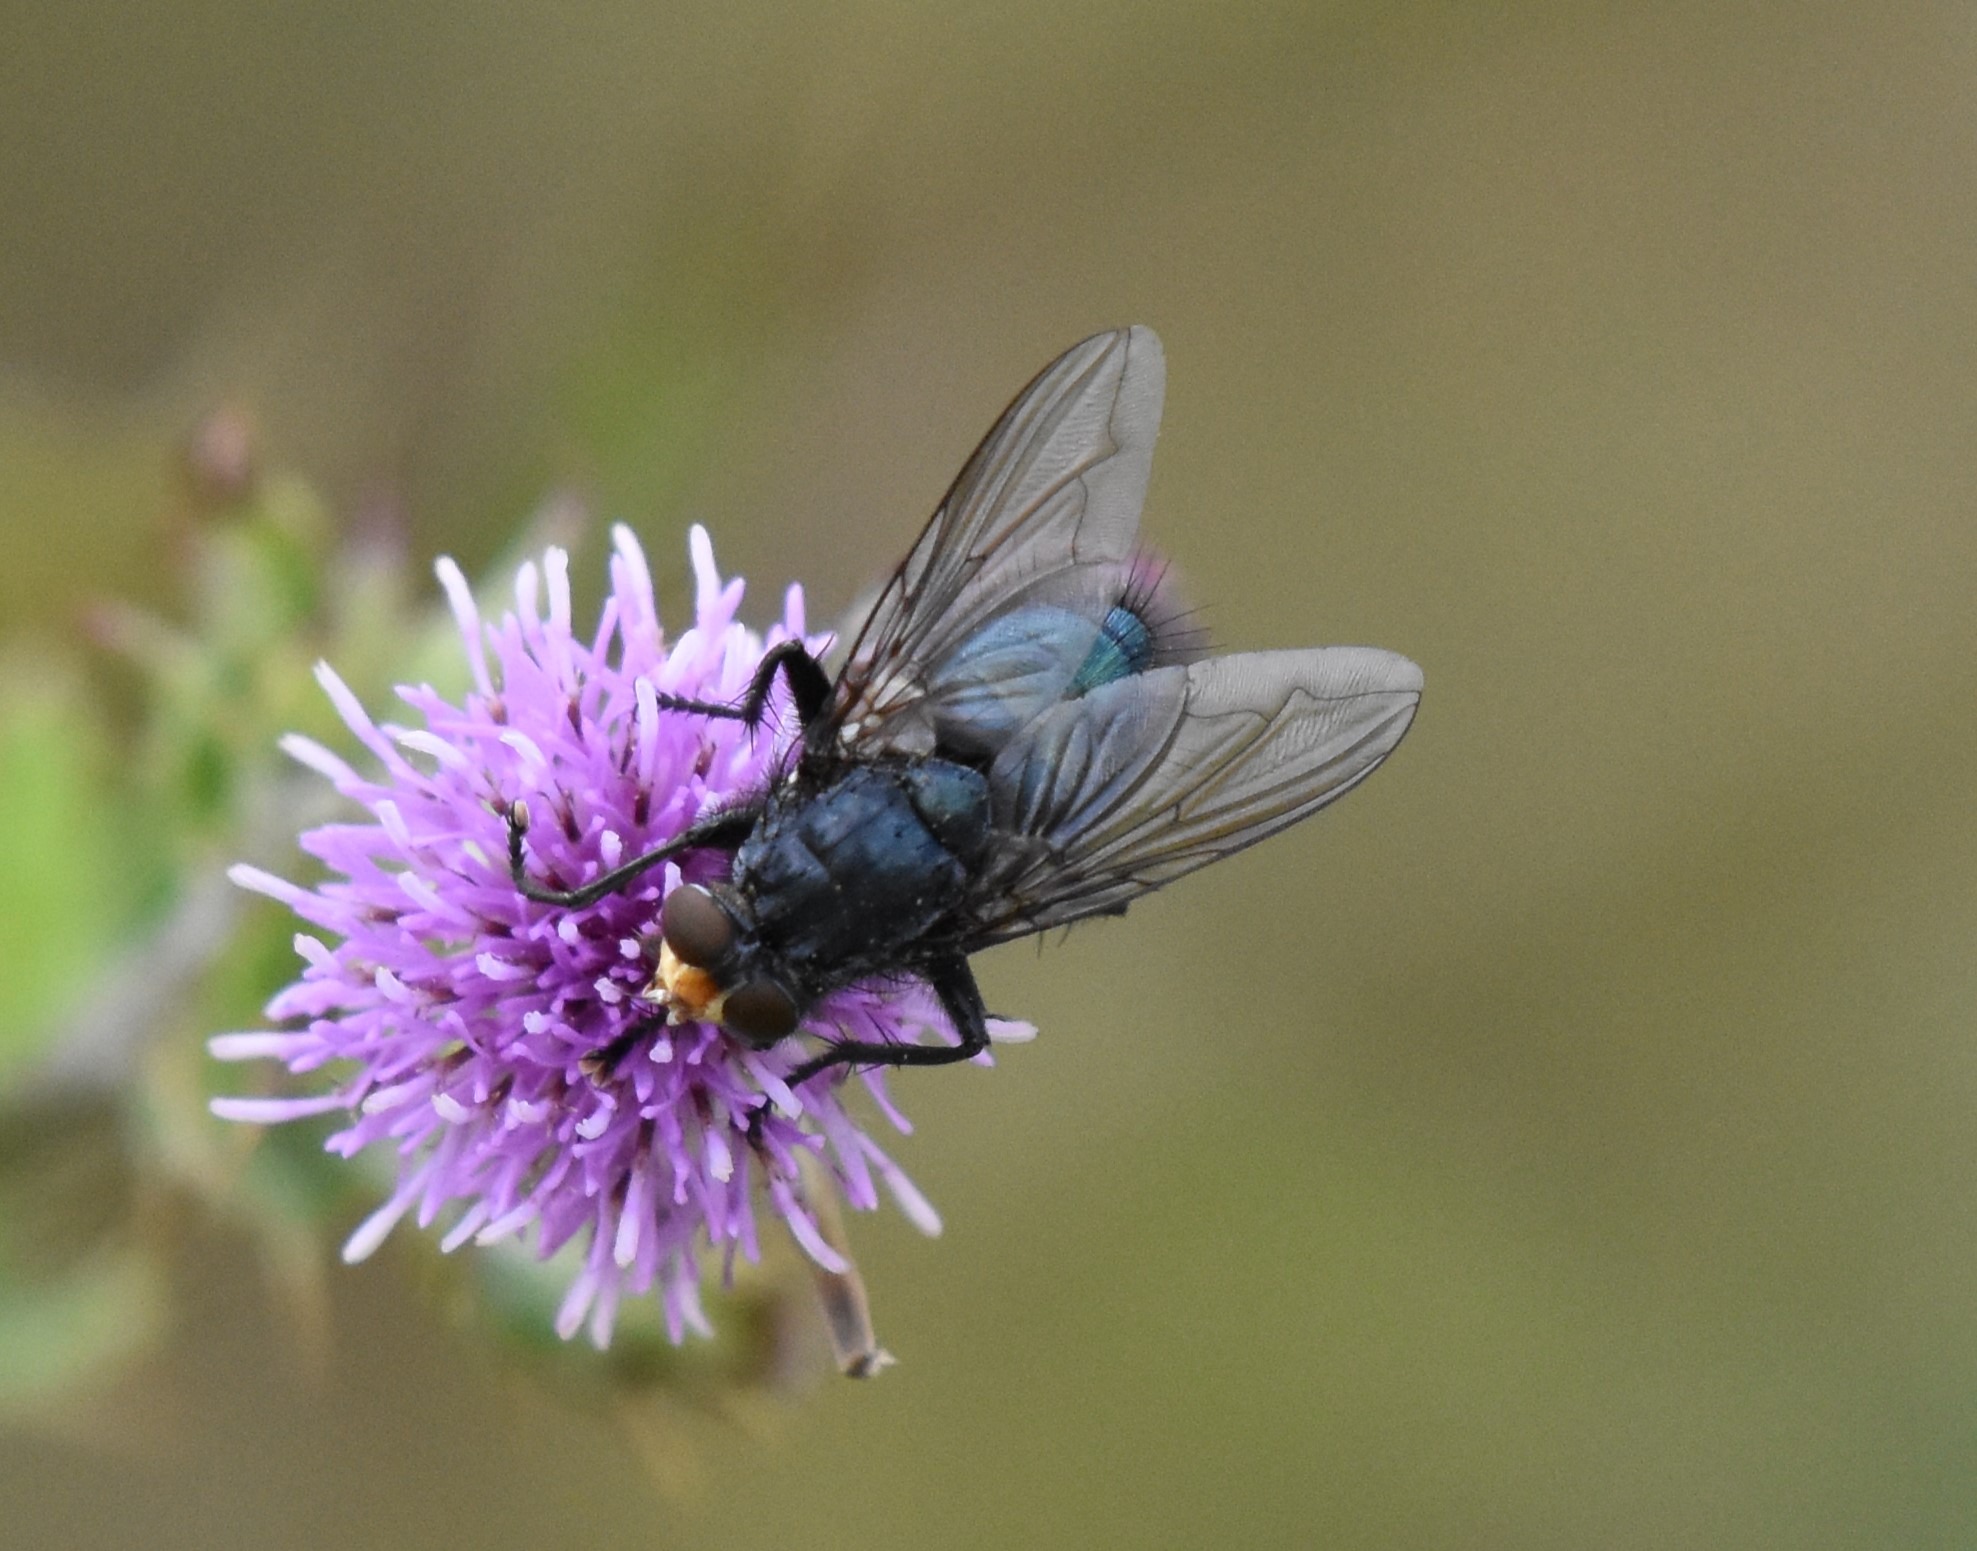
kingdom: Animalia
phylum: Arthropoda
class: Insecta
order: Diptera
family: Calliphoridae
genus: Cynomya
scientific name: Cynomya mortuorum
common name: Dødsflue
